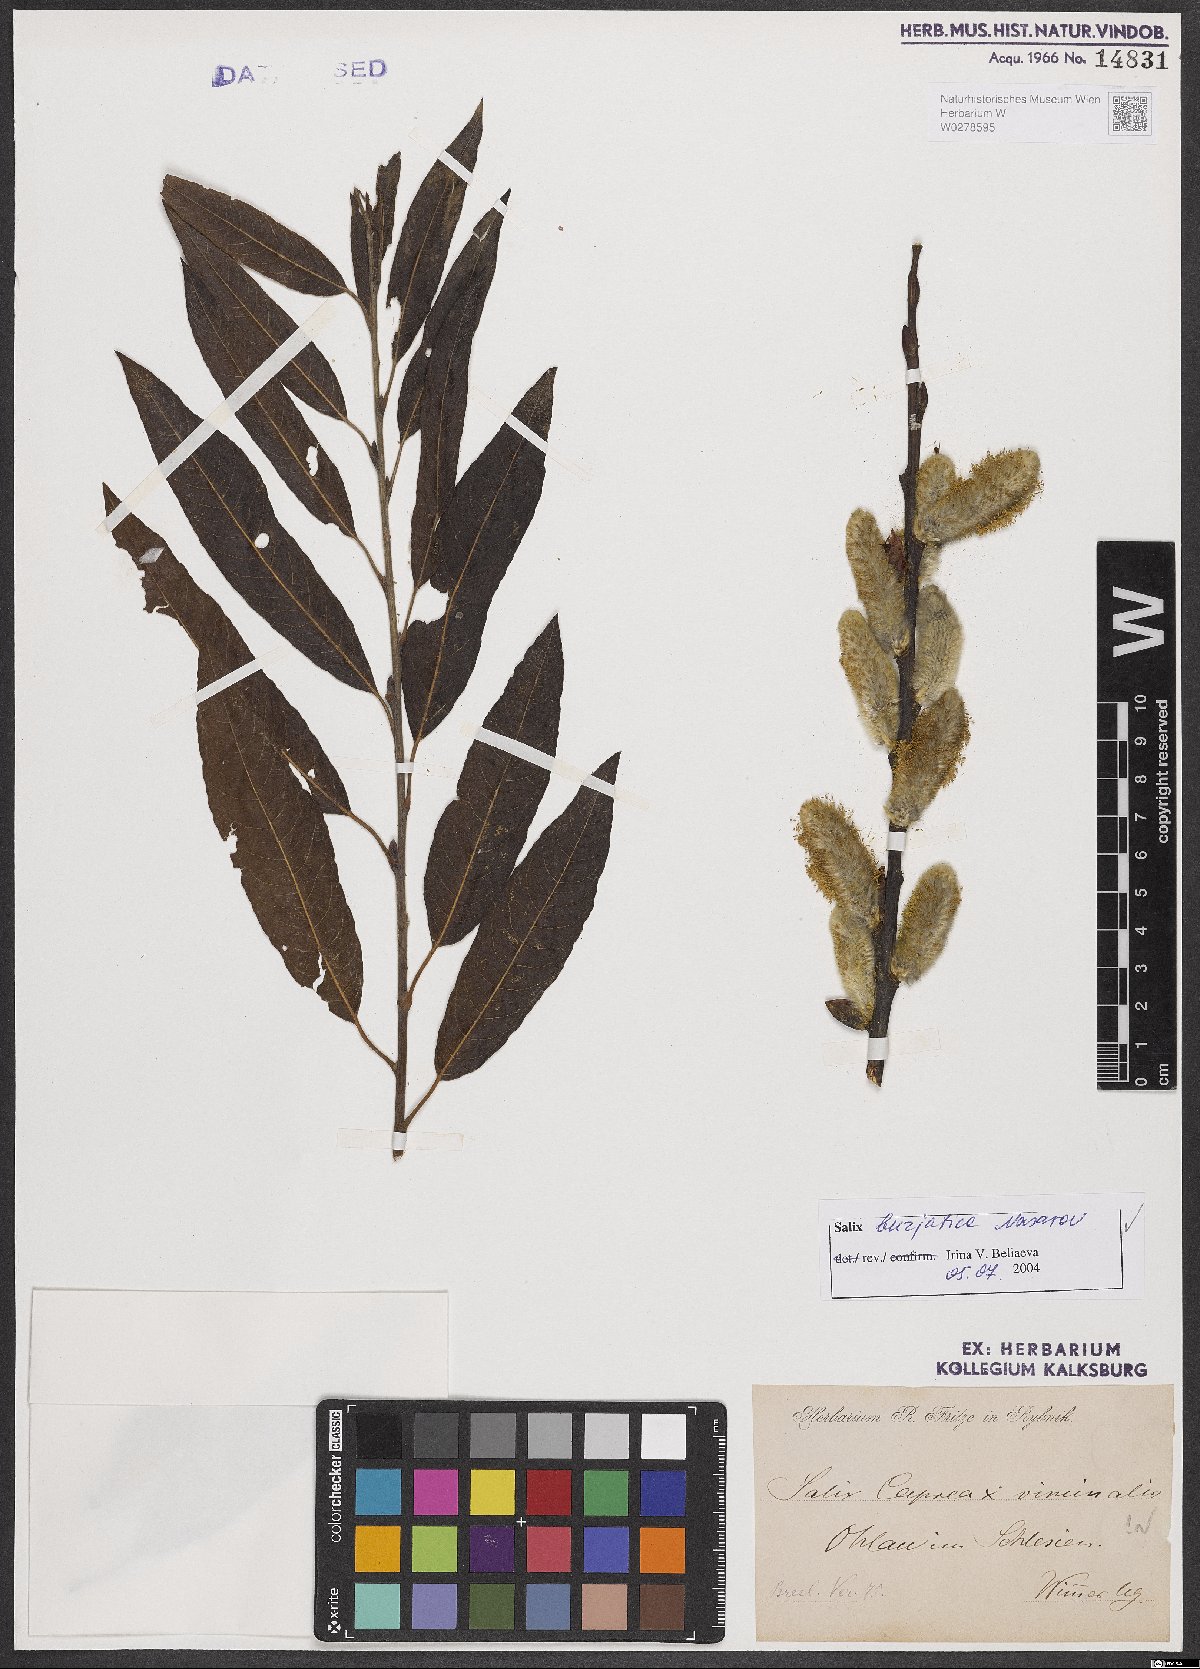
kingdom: Plantae
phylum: Tracheophyta
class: Magnoliopsida
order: Malpighiales
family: Salicaceae
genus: Salix
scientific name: Salix gmelinii
